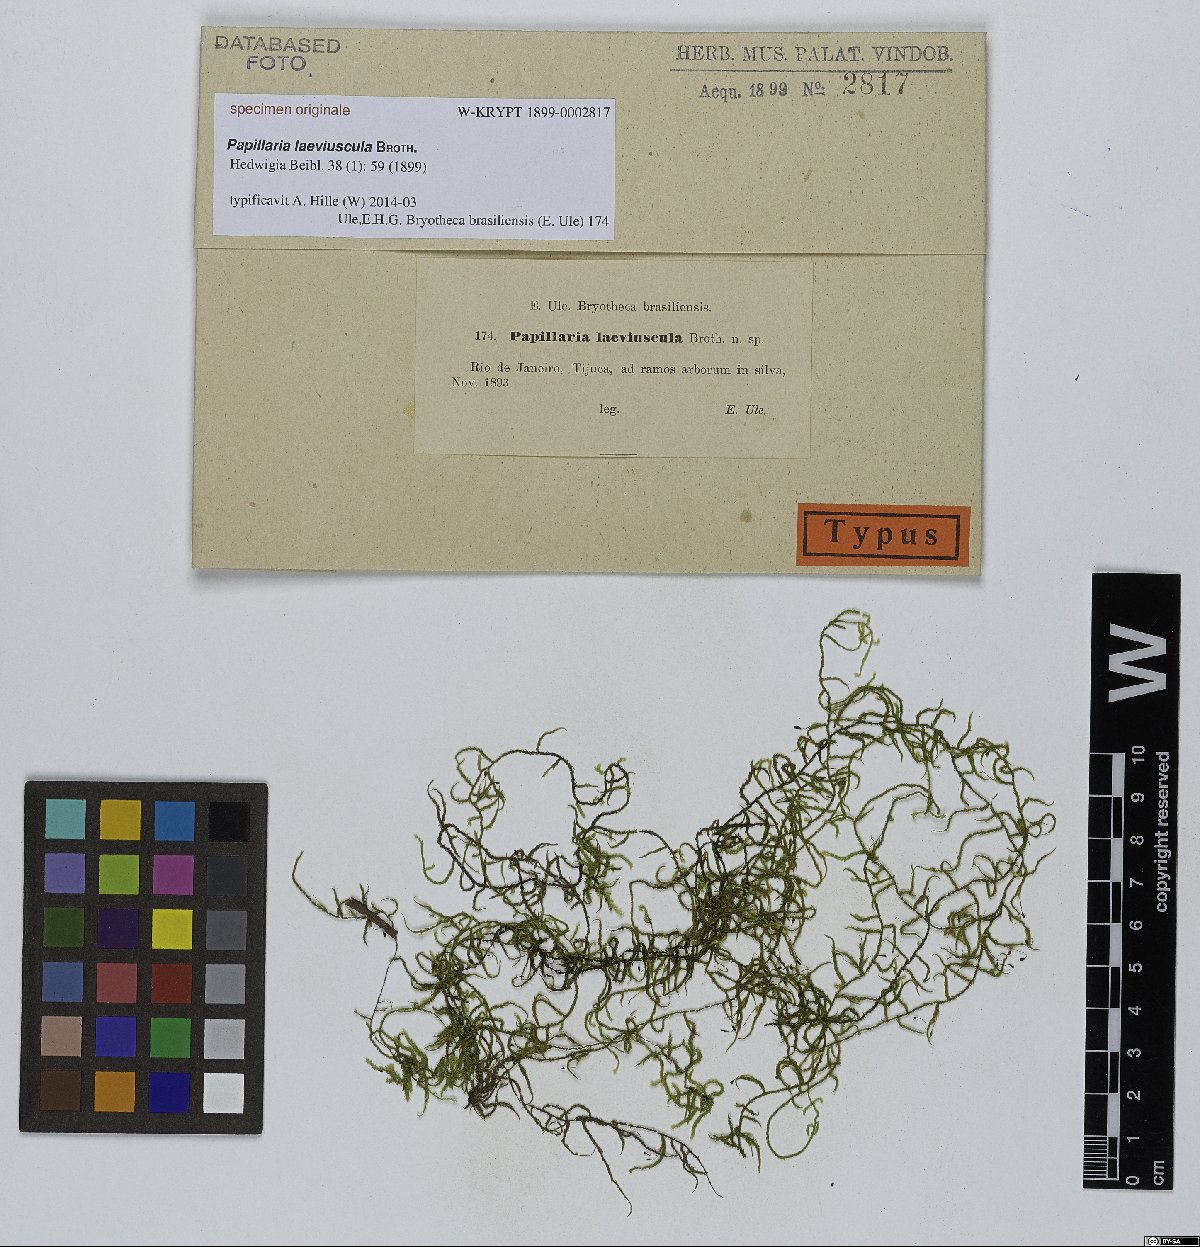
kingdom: Plantae
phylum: Bryophyta
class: Bryopsida
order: Hypnales
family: Meteoriaceae
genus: Papillaria
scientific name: Papillaria
